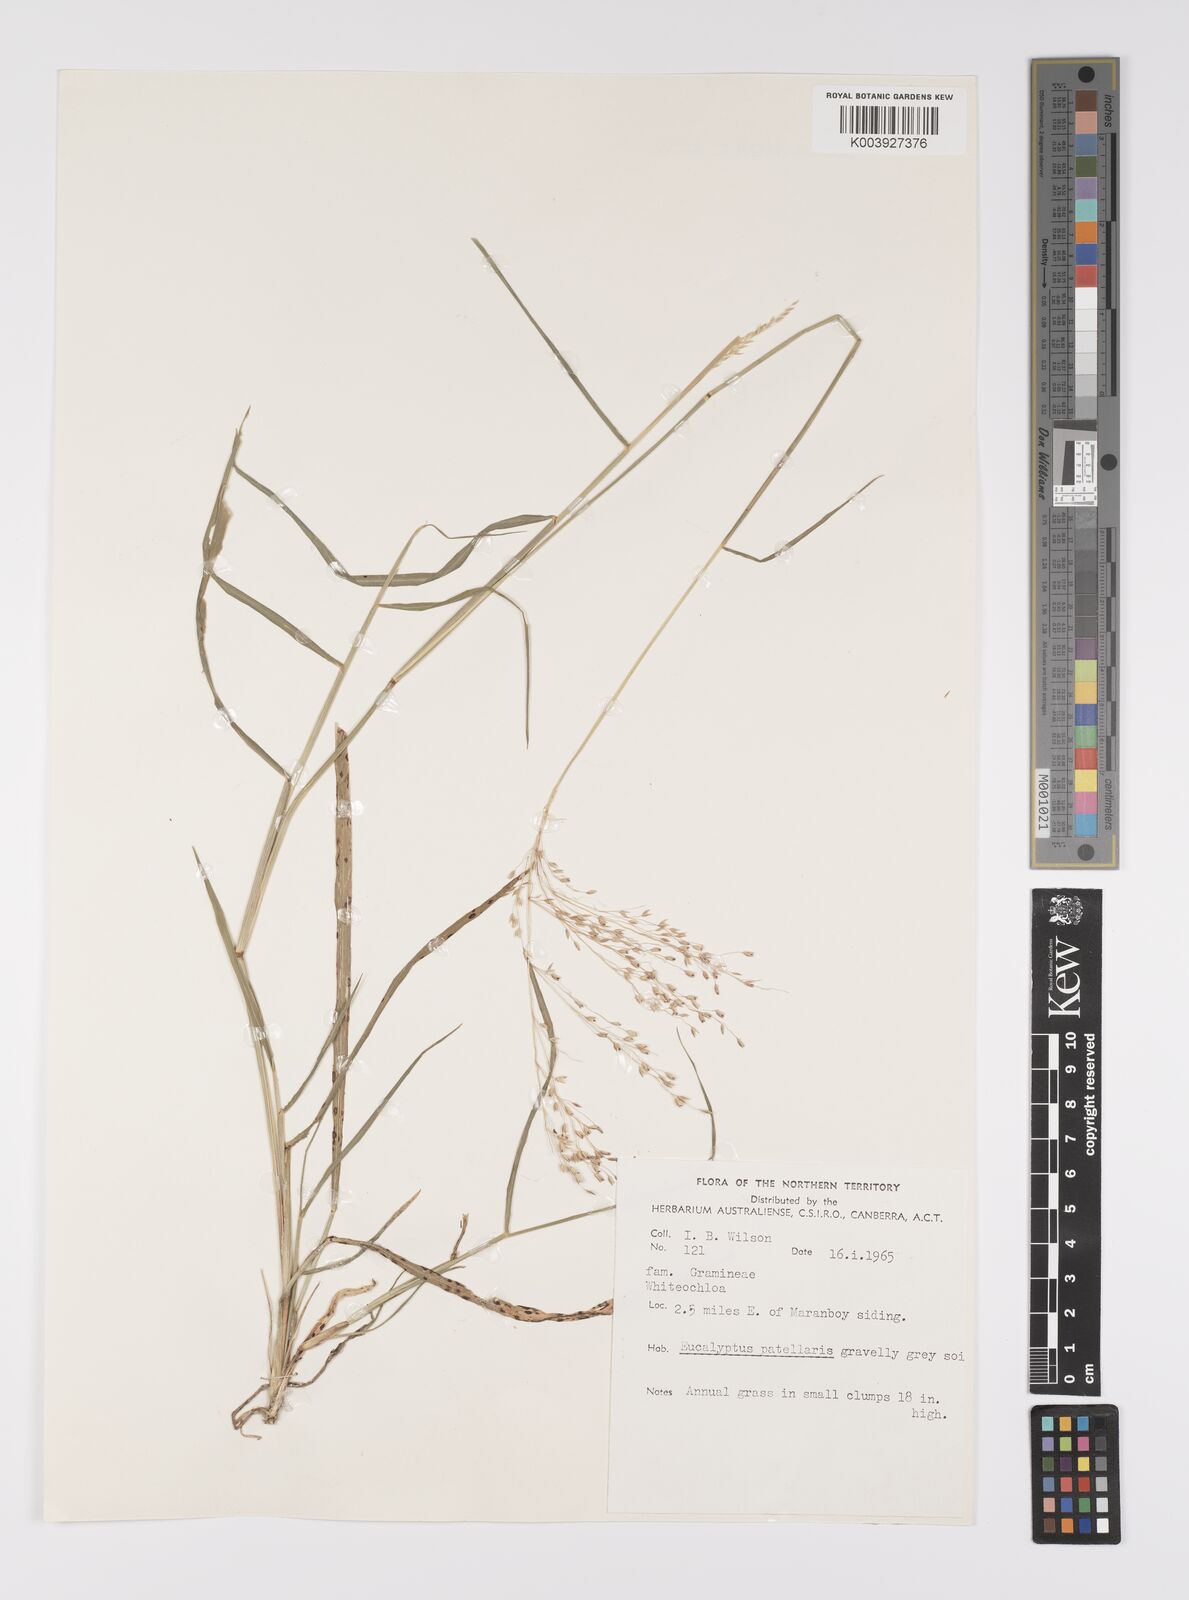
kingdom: Plantae
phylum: Tracheophyta
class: Liliopsida
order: Poales
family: Poaceae
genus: Whiteochloa
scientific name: Whiteochloa semitonsa
